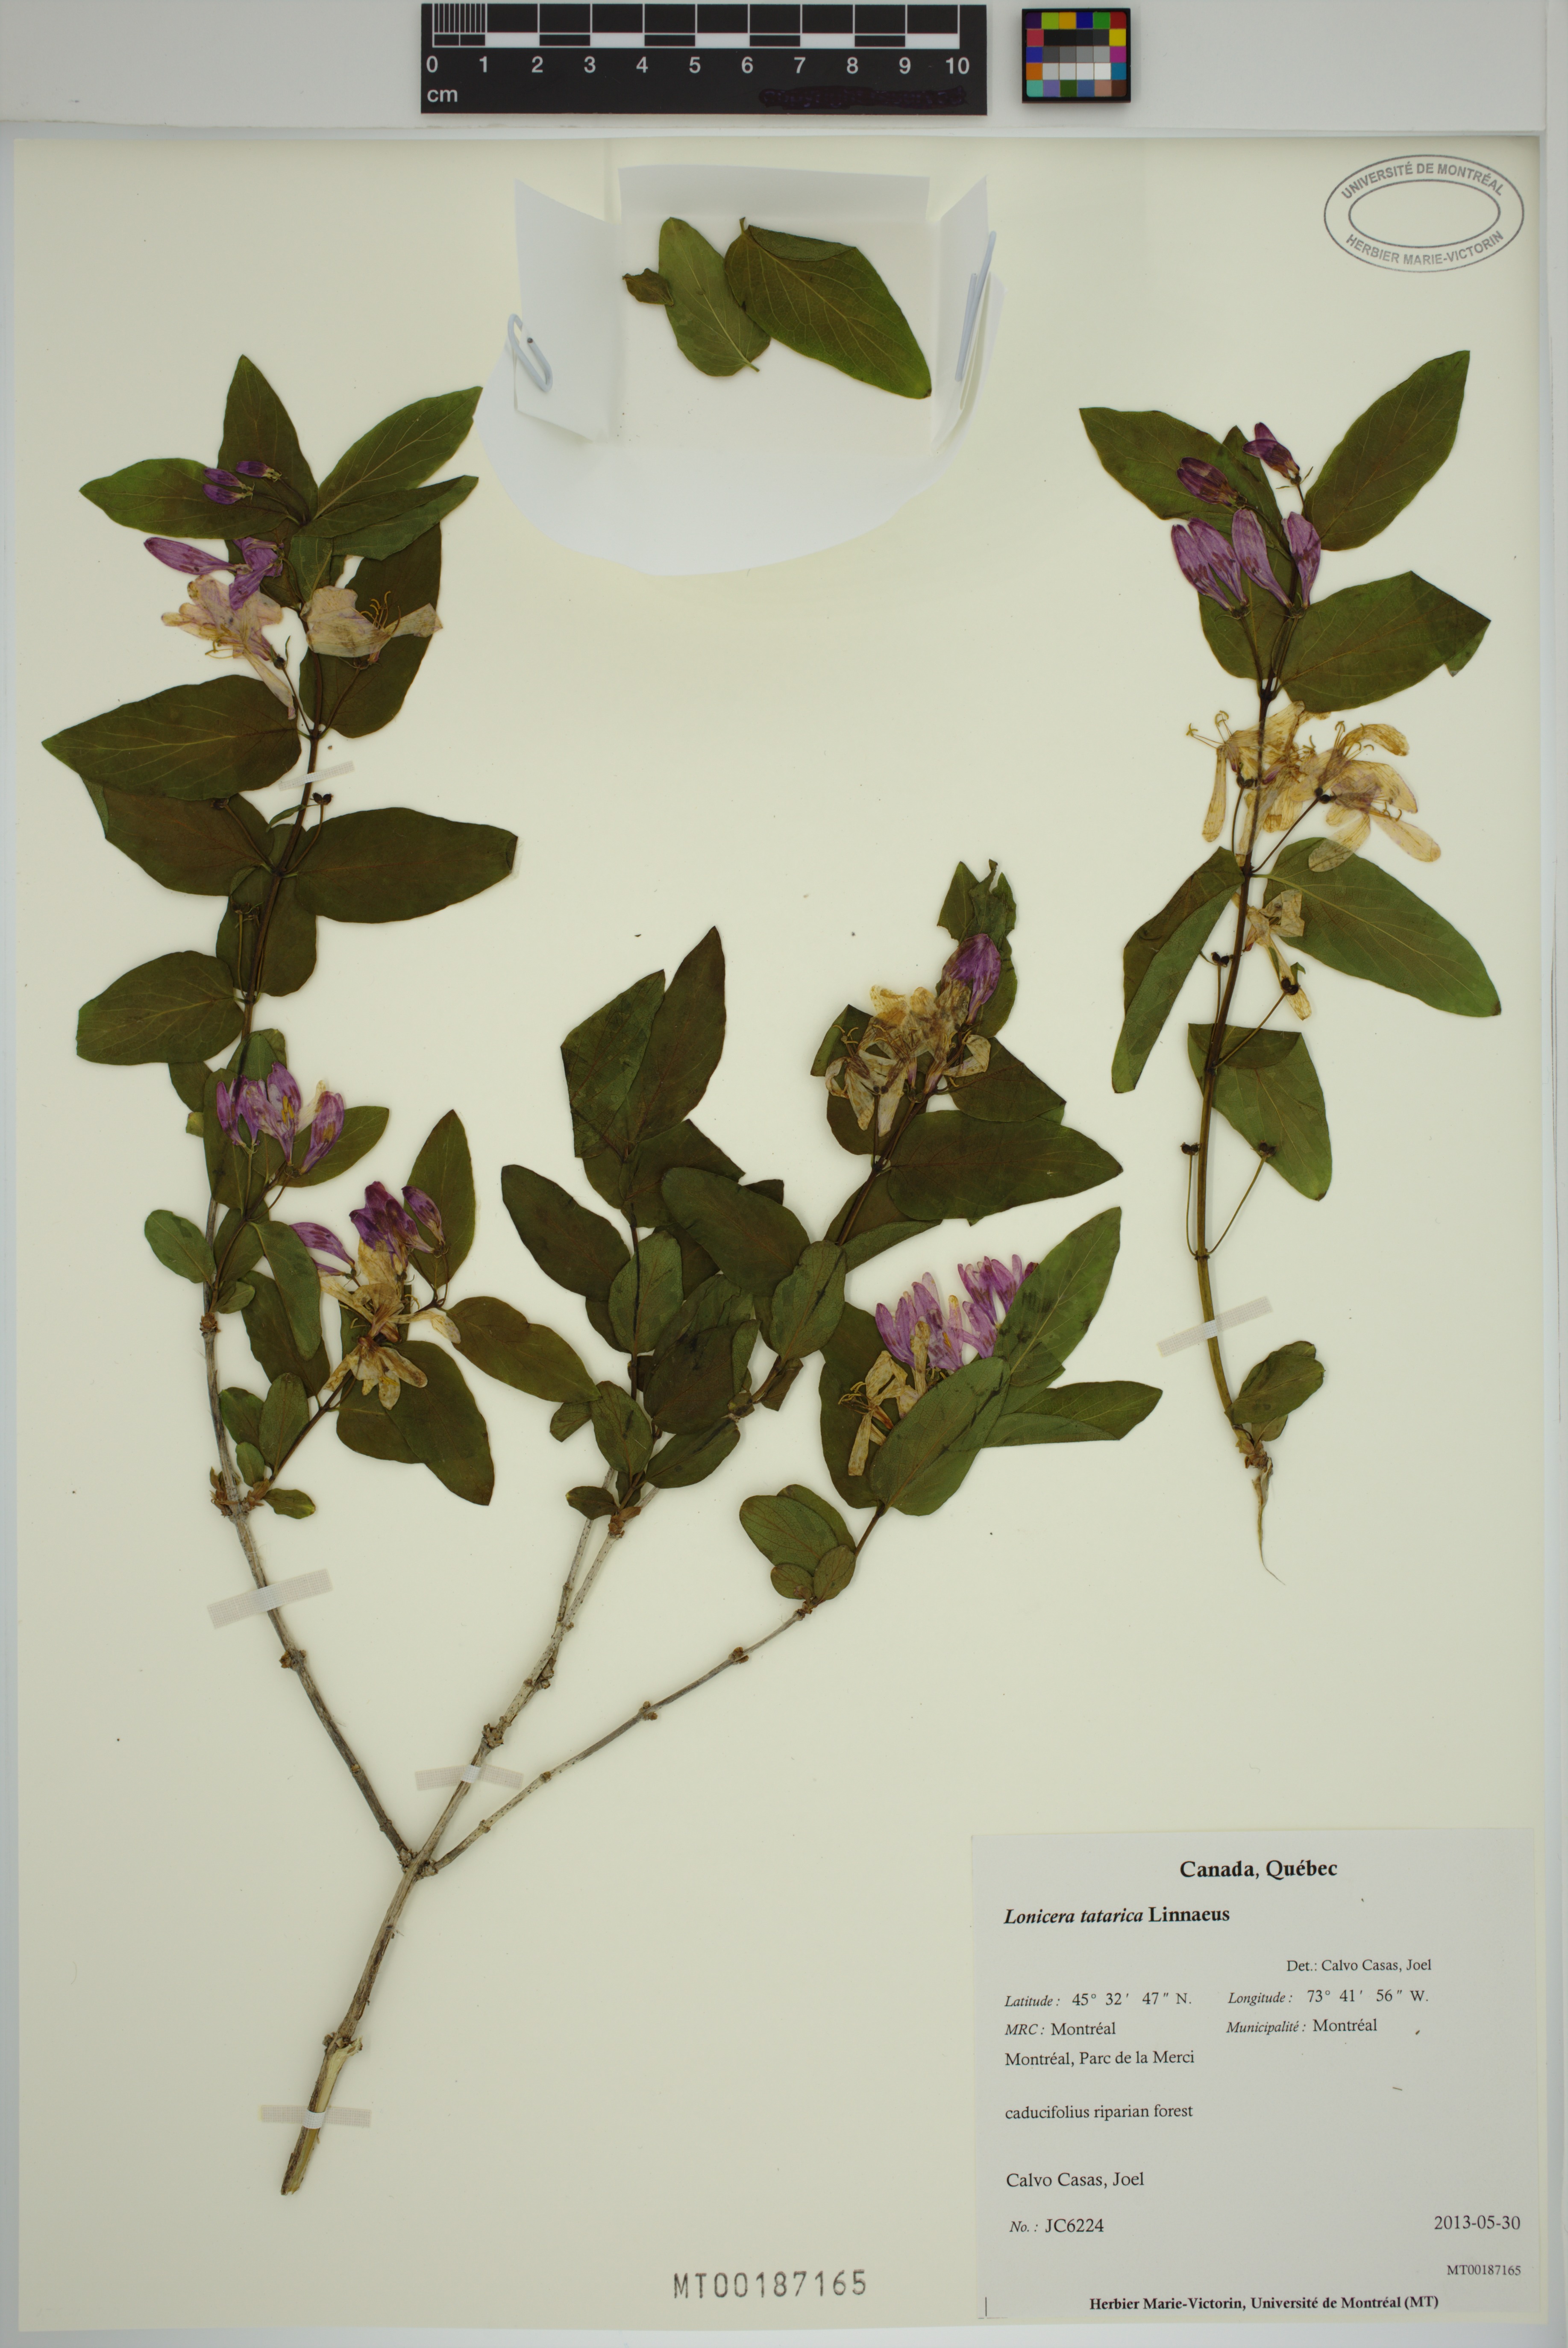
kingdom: Plantae
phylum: Tracheophyta
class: Magnoliopsida
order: Dipsacales
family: Caprifoliaceae
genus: Lonicera
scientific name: Lonicera bella
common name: Bell's honeysuckle
